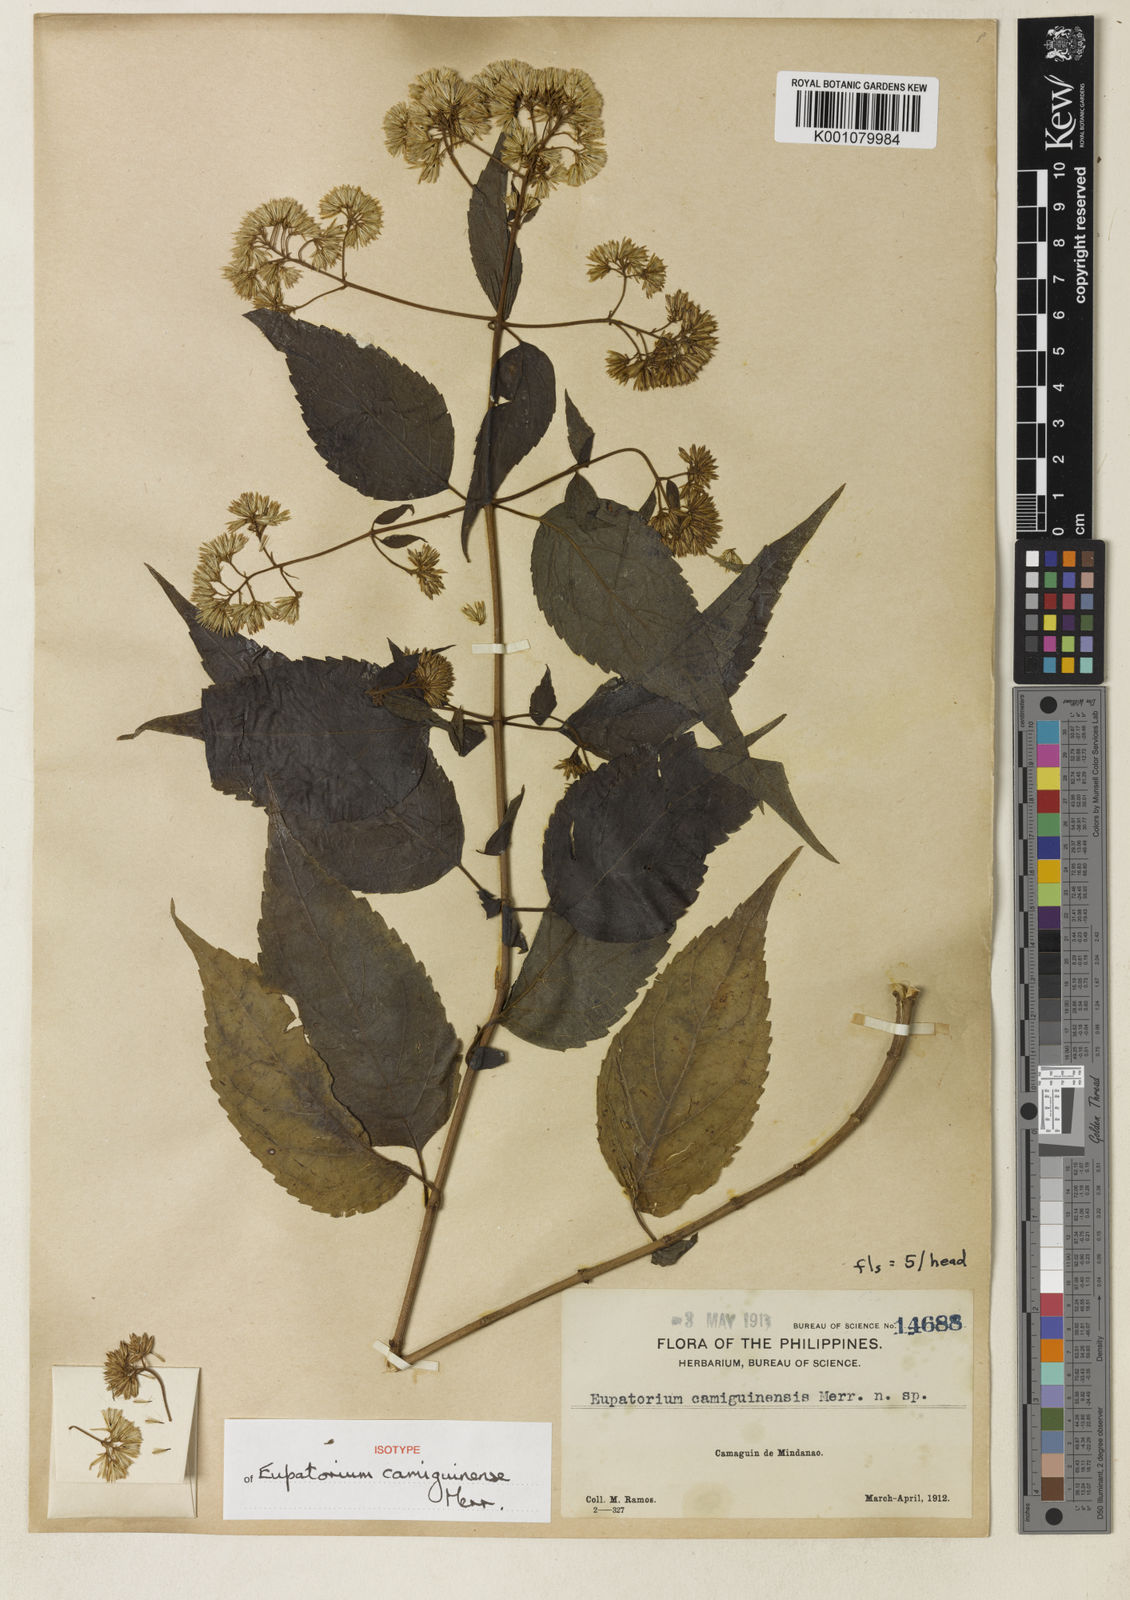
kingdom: Plantae
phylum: Tracheophyta
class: Magnoliopsida
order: Asterales
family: Asteraceae
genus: Eupatorium
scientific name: Eupatorium camiguinense
